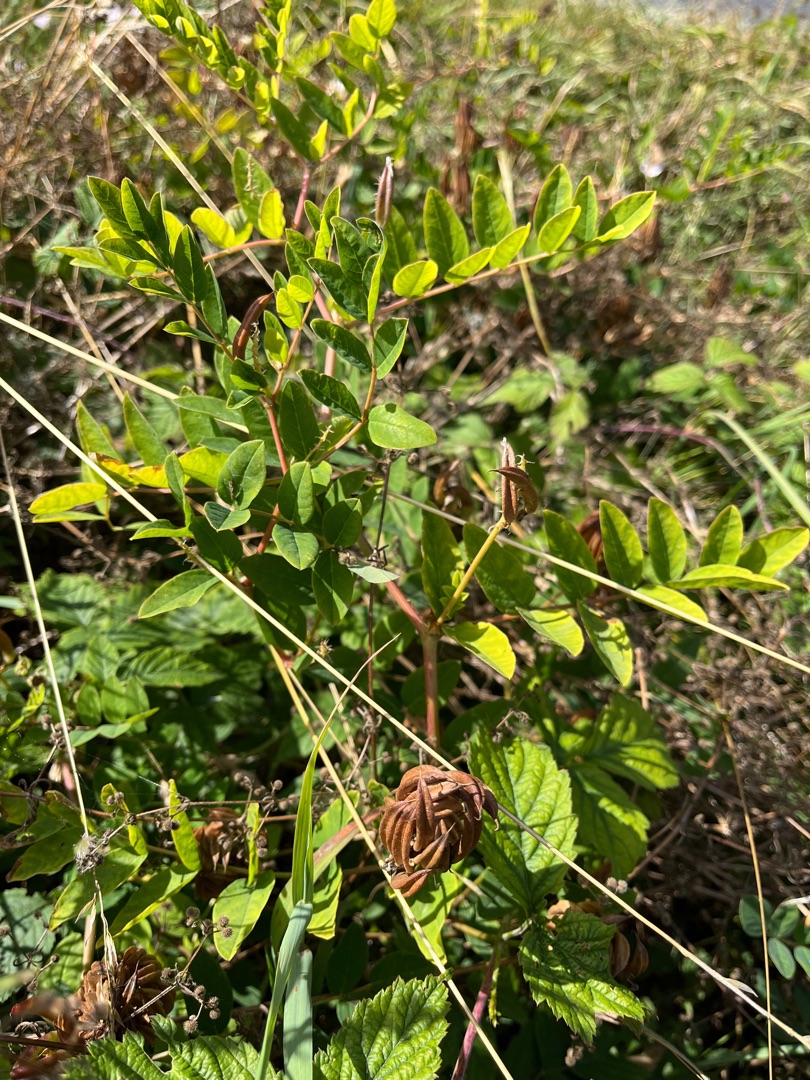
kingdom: Plantae
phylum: Tracheophyta
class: Magnoliopsida
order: Fabales
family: Fabaceae
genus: Astragalus
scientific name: Astragalus glycyphyllos
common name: Sød astragel
